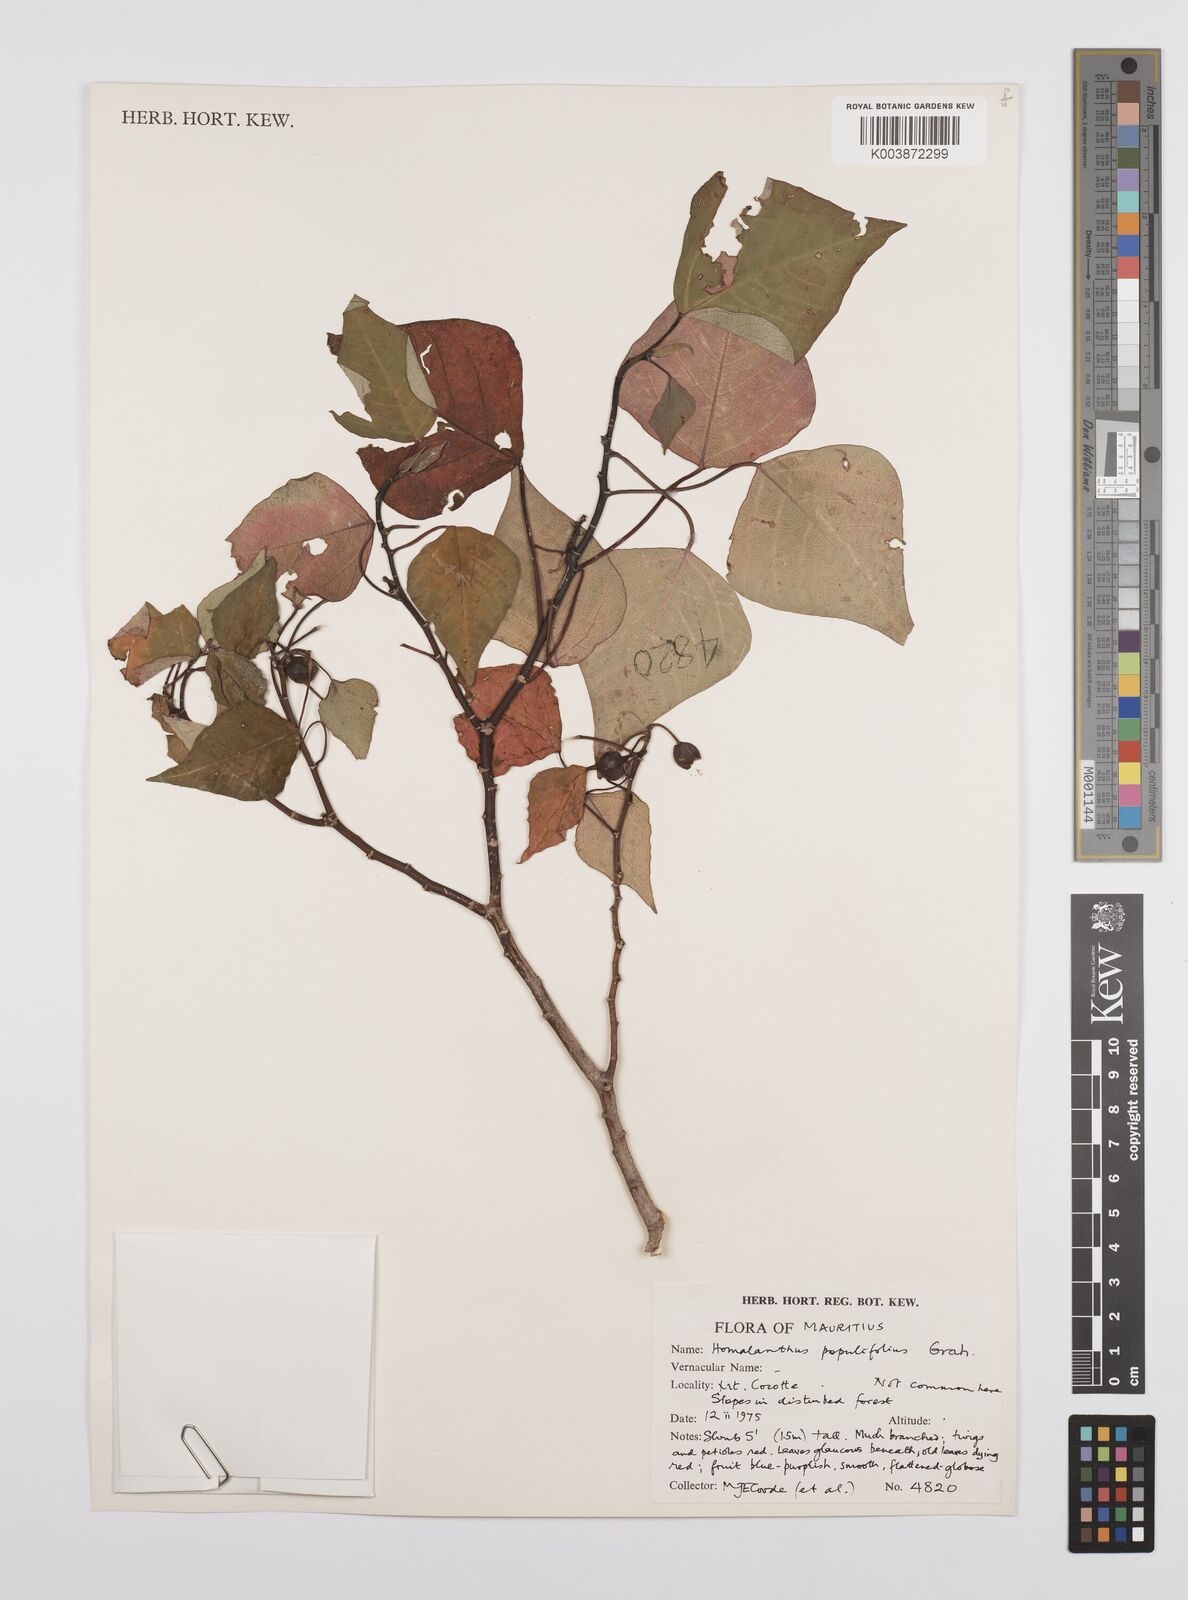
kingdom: Plantae
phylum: Tracheophyta
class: Magnoliopsida
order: Malpighiales
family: Euphorbiaceae
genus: Homalanthus
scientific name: Homalanthus populifolius
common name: Queensland poplar
